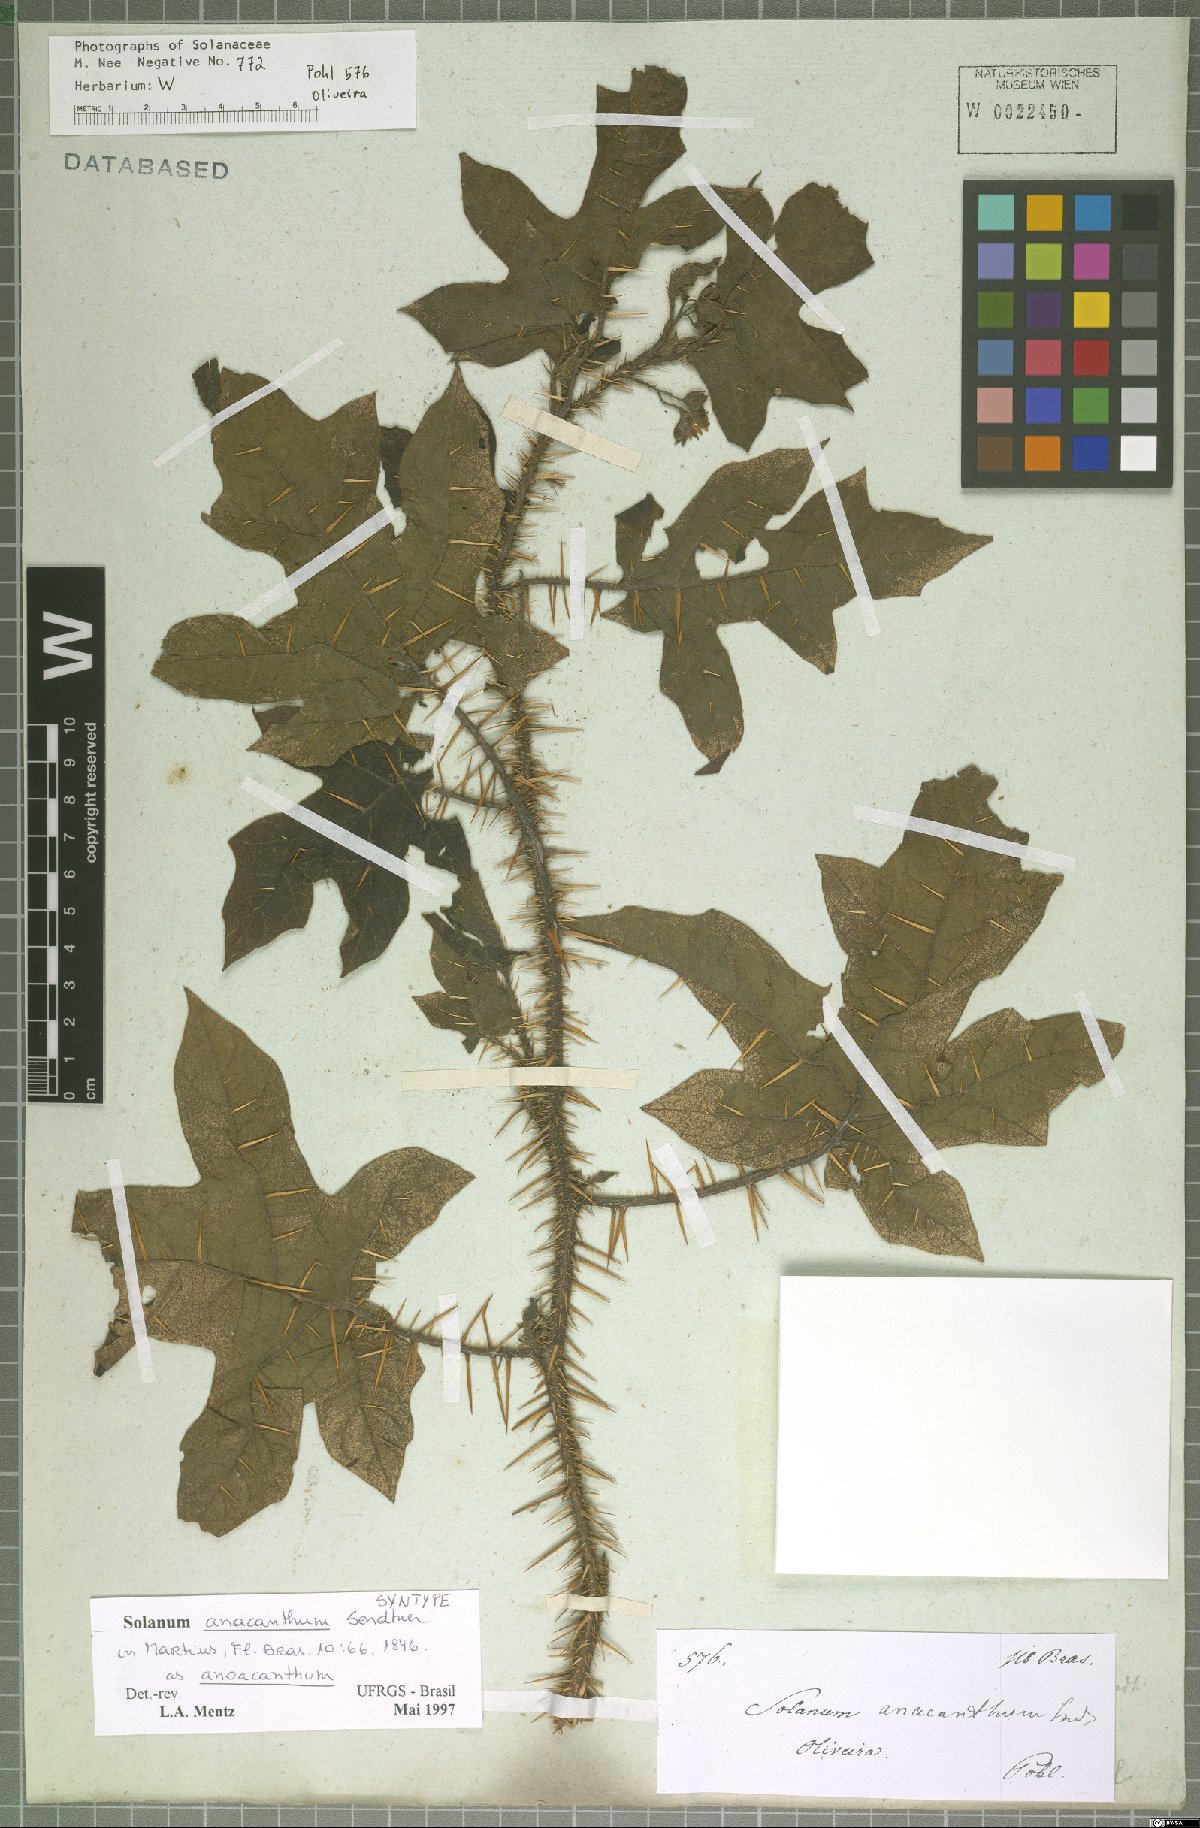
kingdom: Plantae
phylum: Tracheophyta
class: Magnoliopsida
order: Solanales
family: Solanaceae
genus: Solanum
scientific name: Solanum anoacanthum
